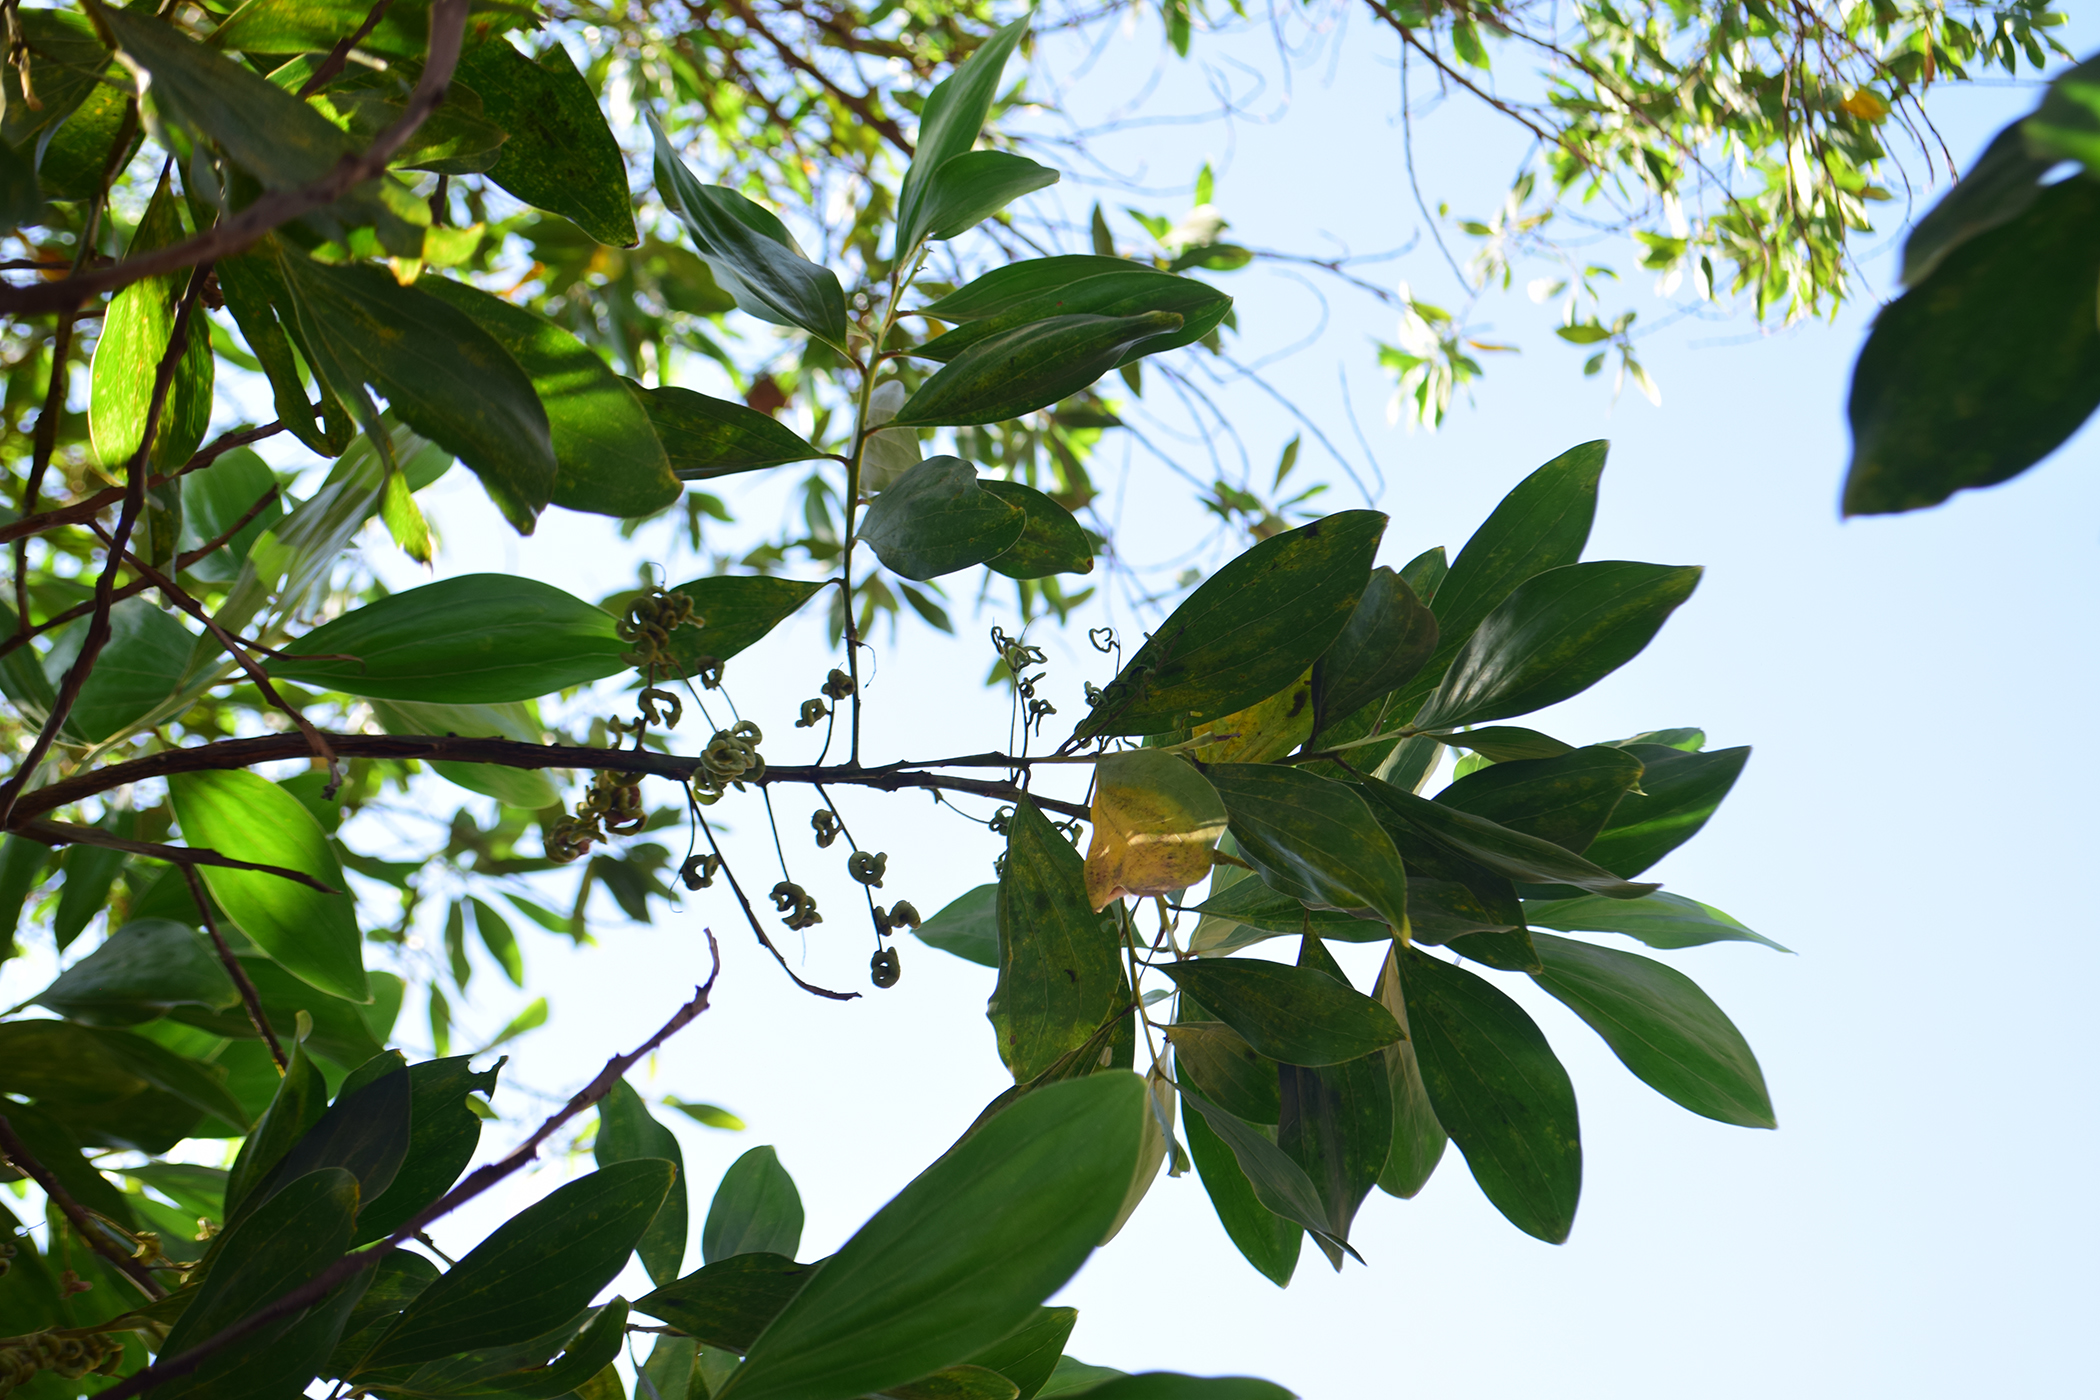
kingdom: Plantae
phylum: Tracheophyta
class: Magnoliopsida
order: Fabales
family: Fabaceae
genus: Acacia
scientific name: Acacia mangium
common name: Black wattle
